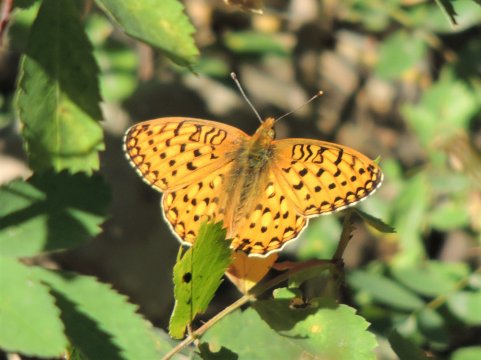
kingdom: Animalia
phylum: Arthropoda
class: Insecta
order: Lepidoptera
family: Nymphalidae
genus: Speyeria
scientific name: Speyeria mormonia
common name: Mormon Fritillary
